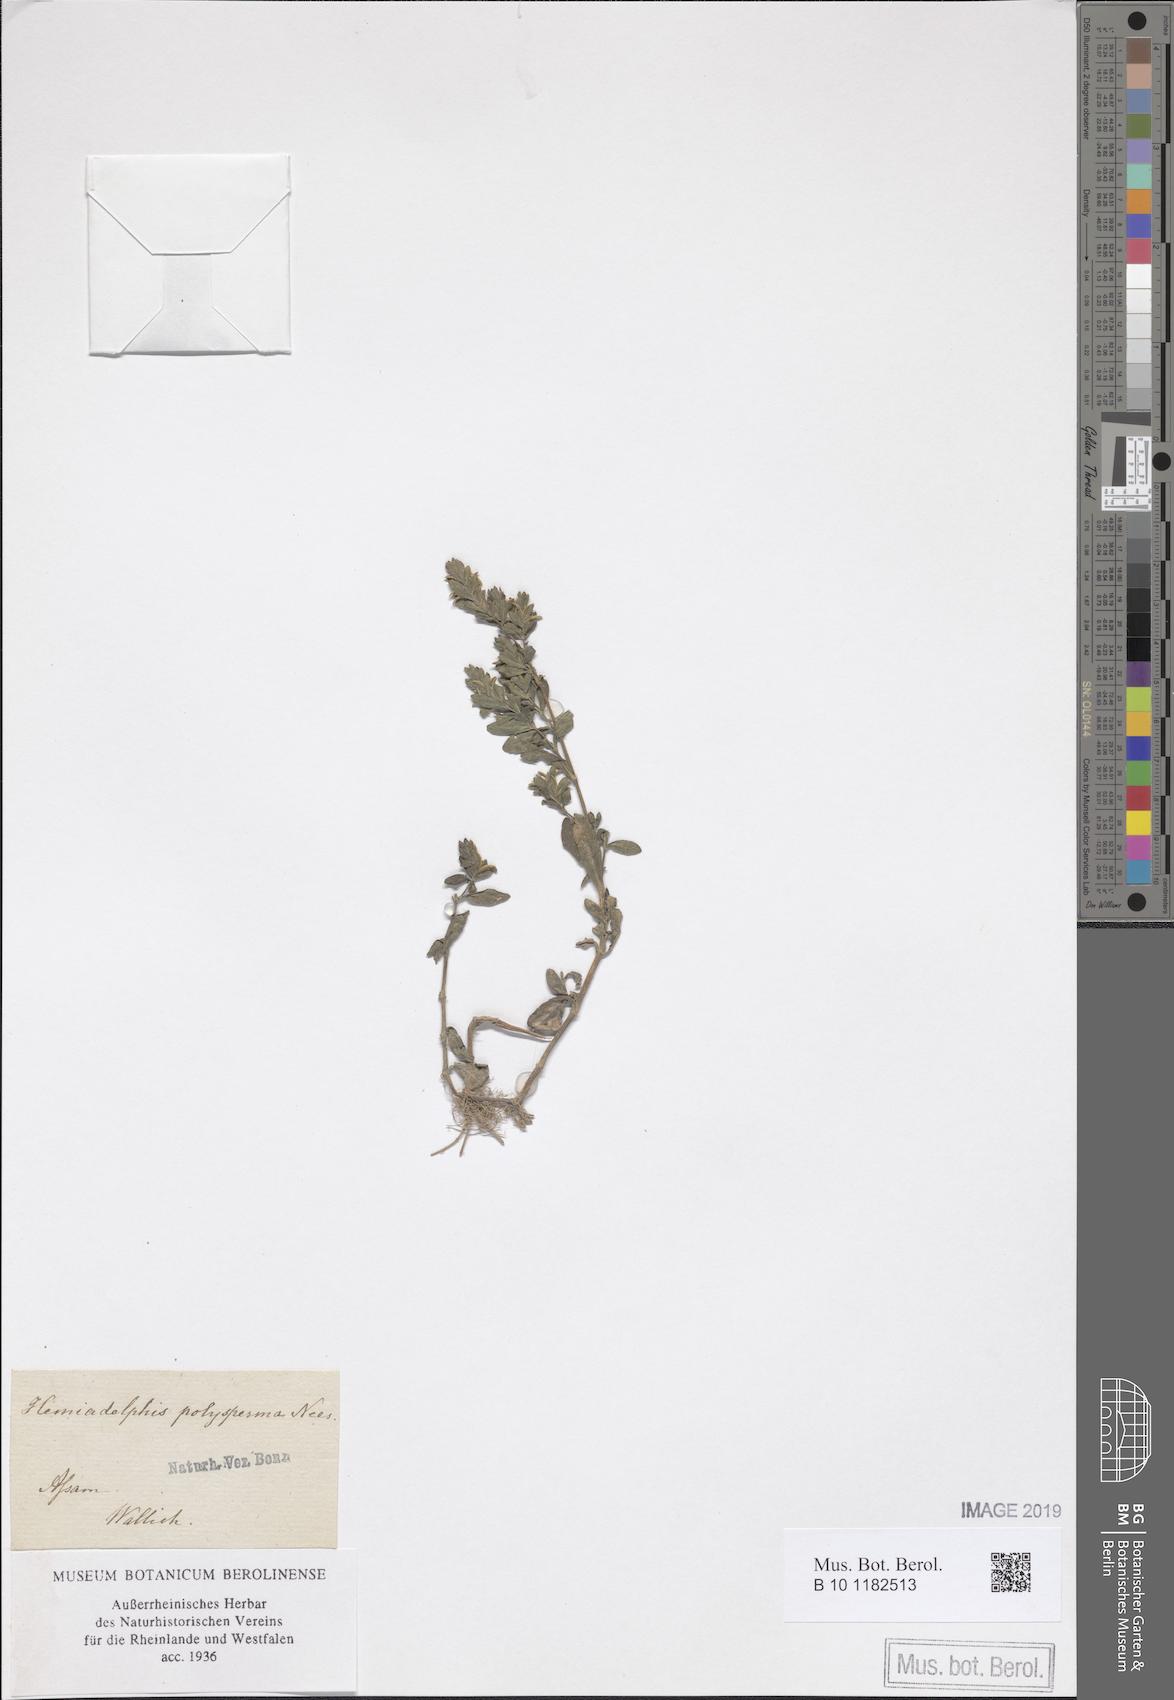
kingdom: Plantae
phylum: Tracheophyta
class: Magnoliopsida
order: Lamiales
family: Acanthaceae
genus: Hygrophila
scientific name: Hygrophila polysperma
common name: Indian swampweed
